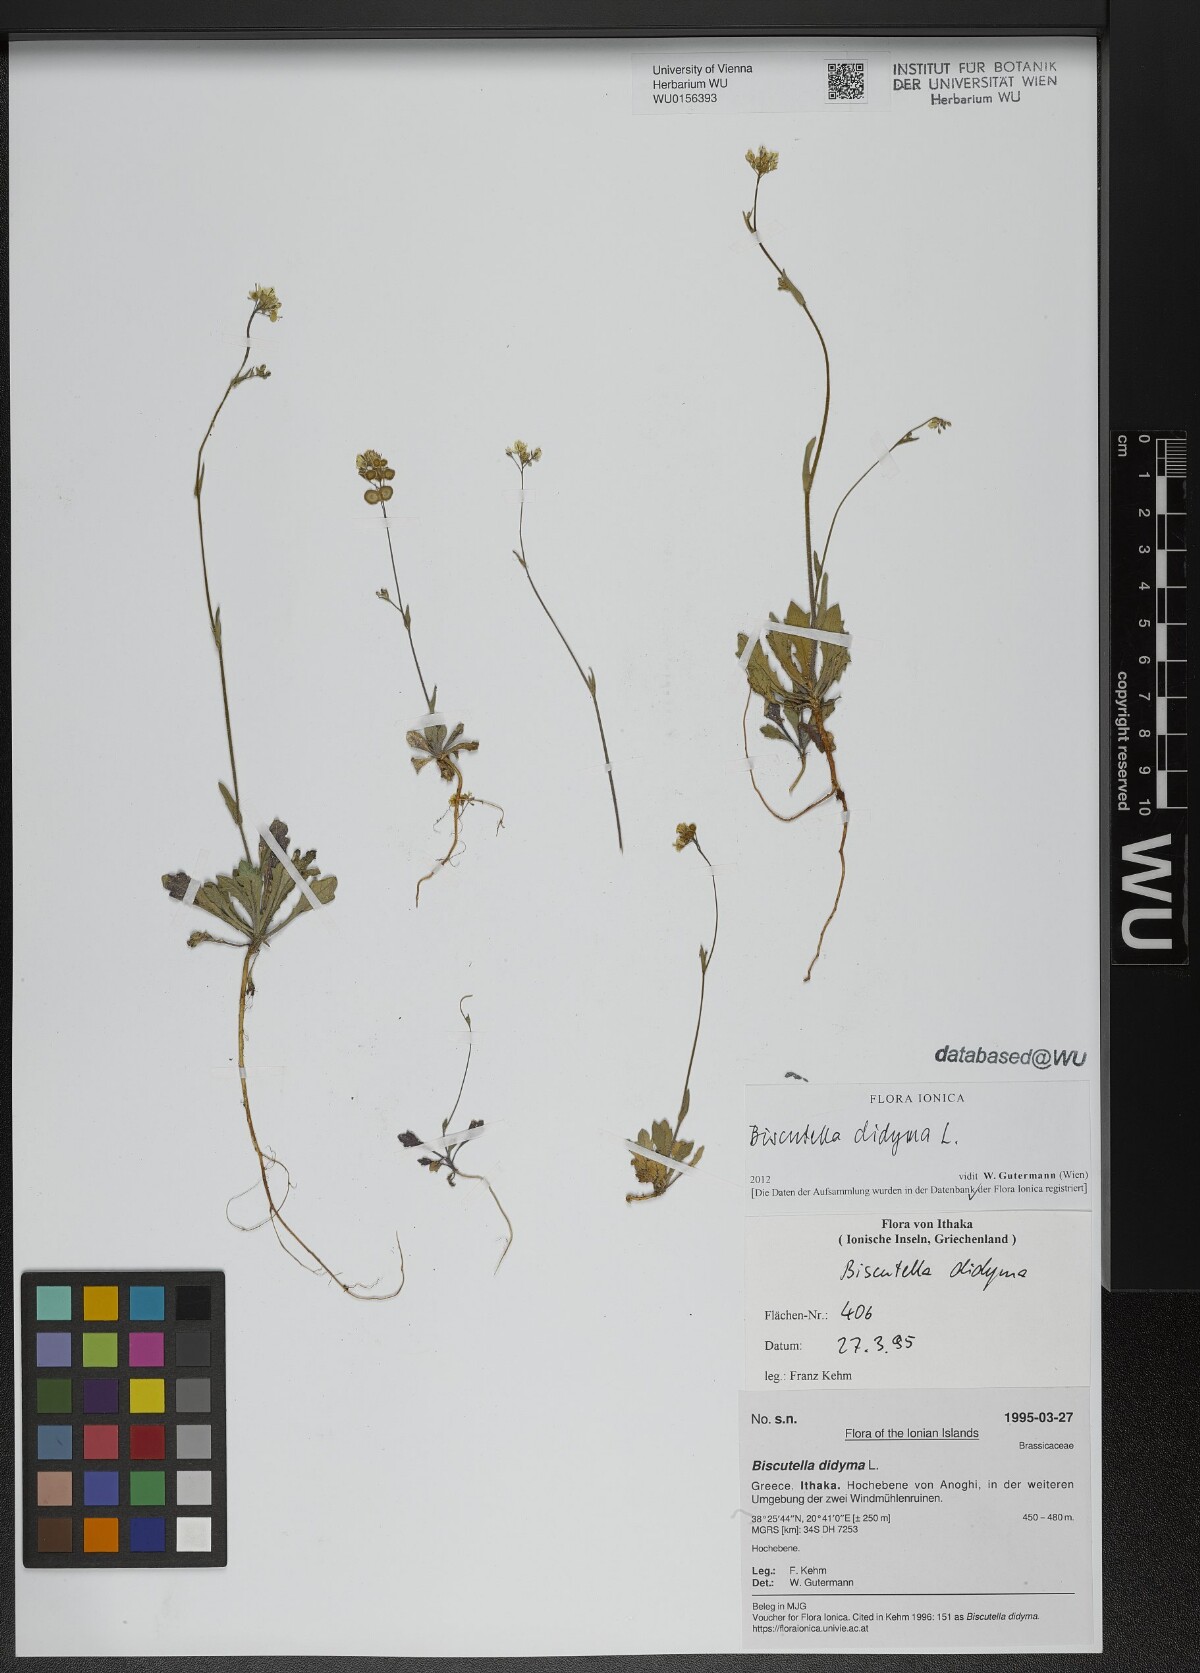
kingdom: Plantae
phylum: Tracheophyta
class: Magnoliopsida
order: Brassicales
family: Brassicaceae
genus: Biscutella
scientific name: Biscutella didyma
